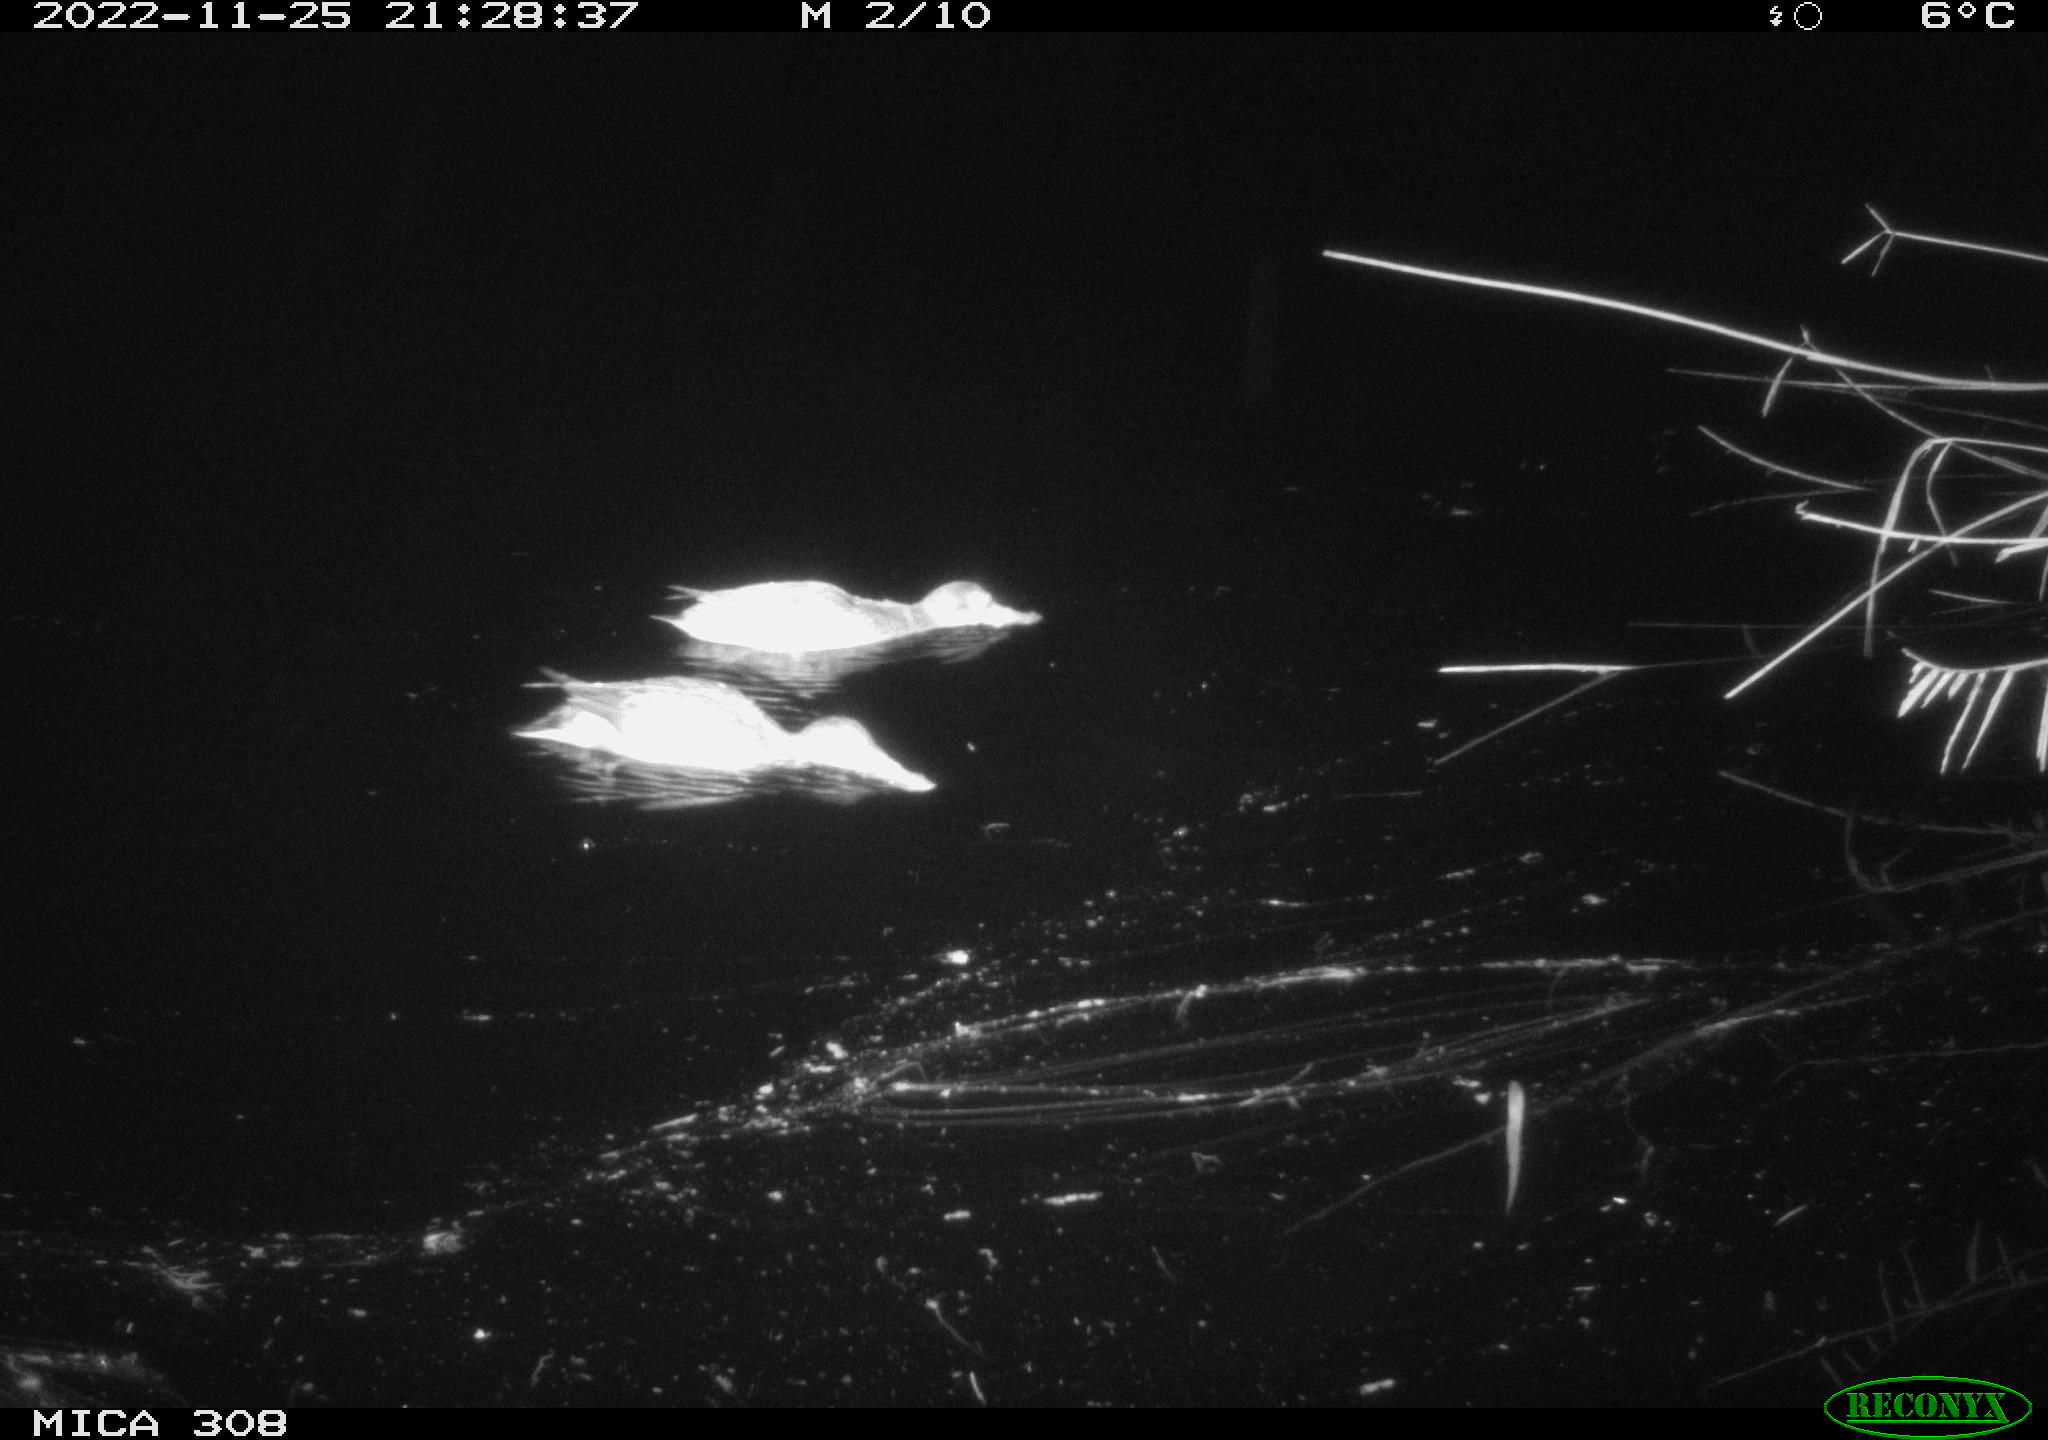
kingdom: Animalia
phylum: Chordata
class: Aves
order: Anseriformes
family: Anatidae
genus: Anas
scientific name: Anas
